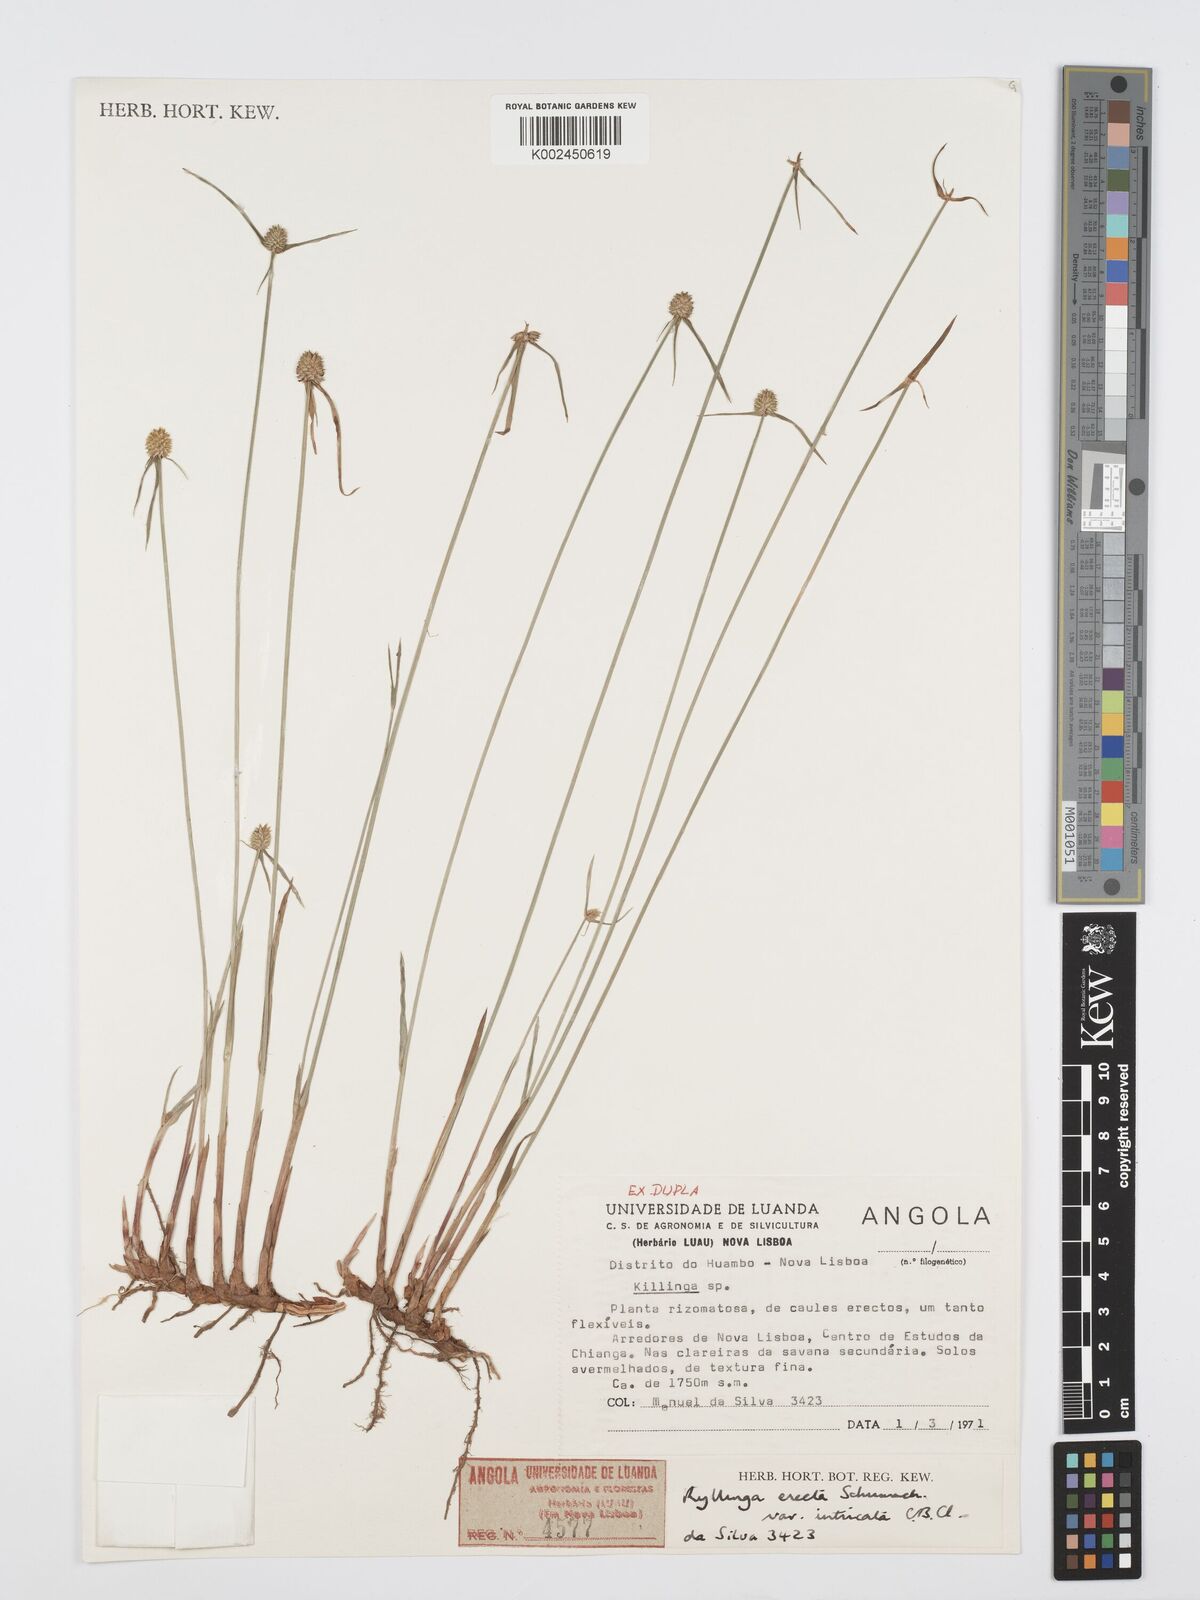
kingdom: Plantae
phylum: Tracheophyta
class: Liliopsida
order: Poales
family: Cyperaceae
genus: Cyperus
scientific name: Cyperus erectus
